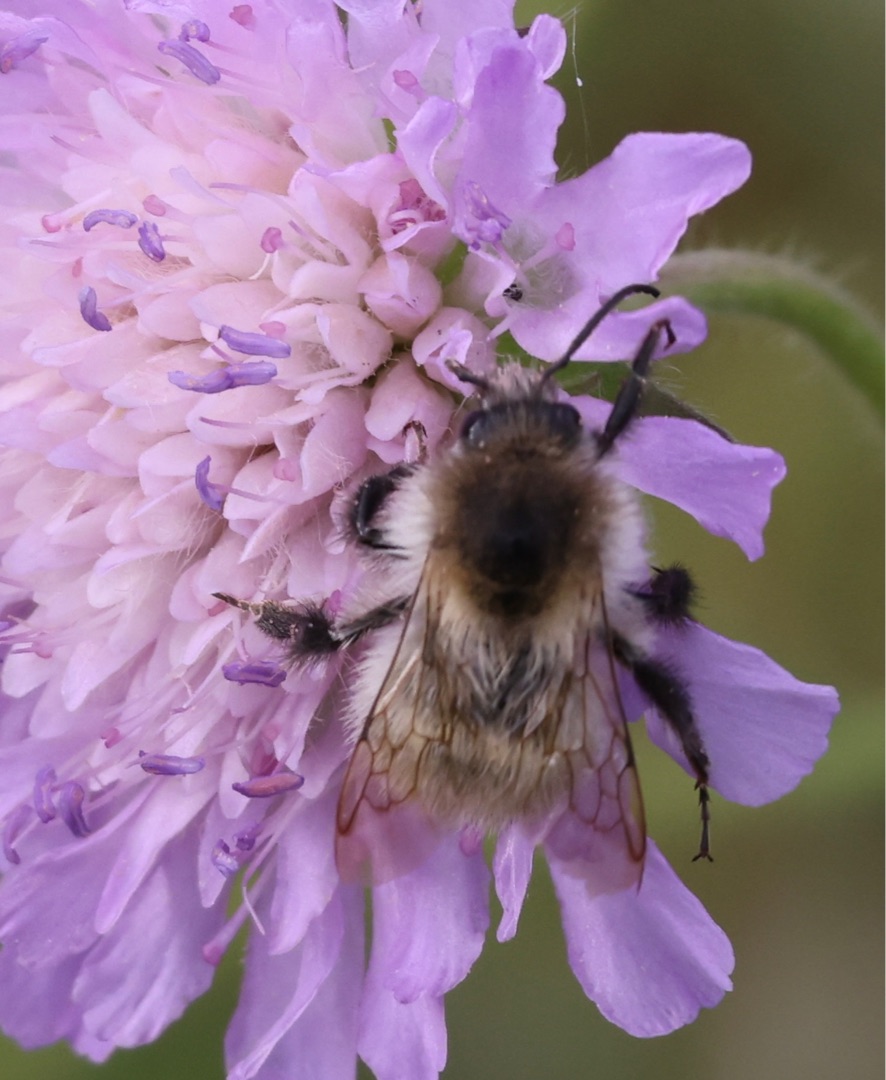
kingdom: Plantae
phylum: Tracheophyta
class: Magnoliopsida
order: Dipsacales
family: Caprifoliaceae
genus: Knautia
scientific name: Knautia arvensis
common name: Blåhat
